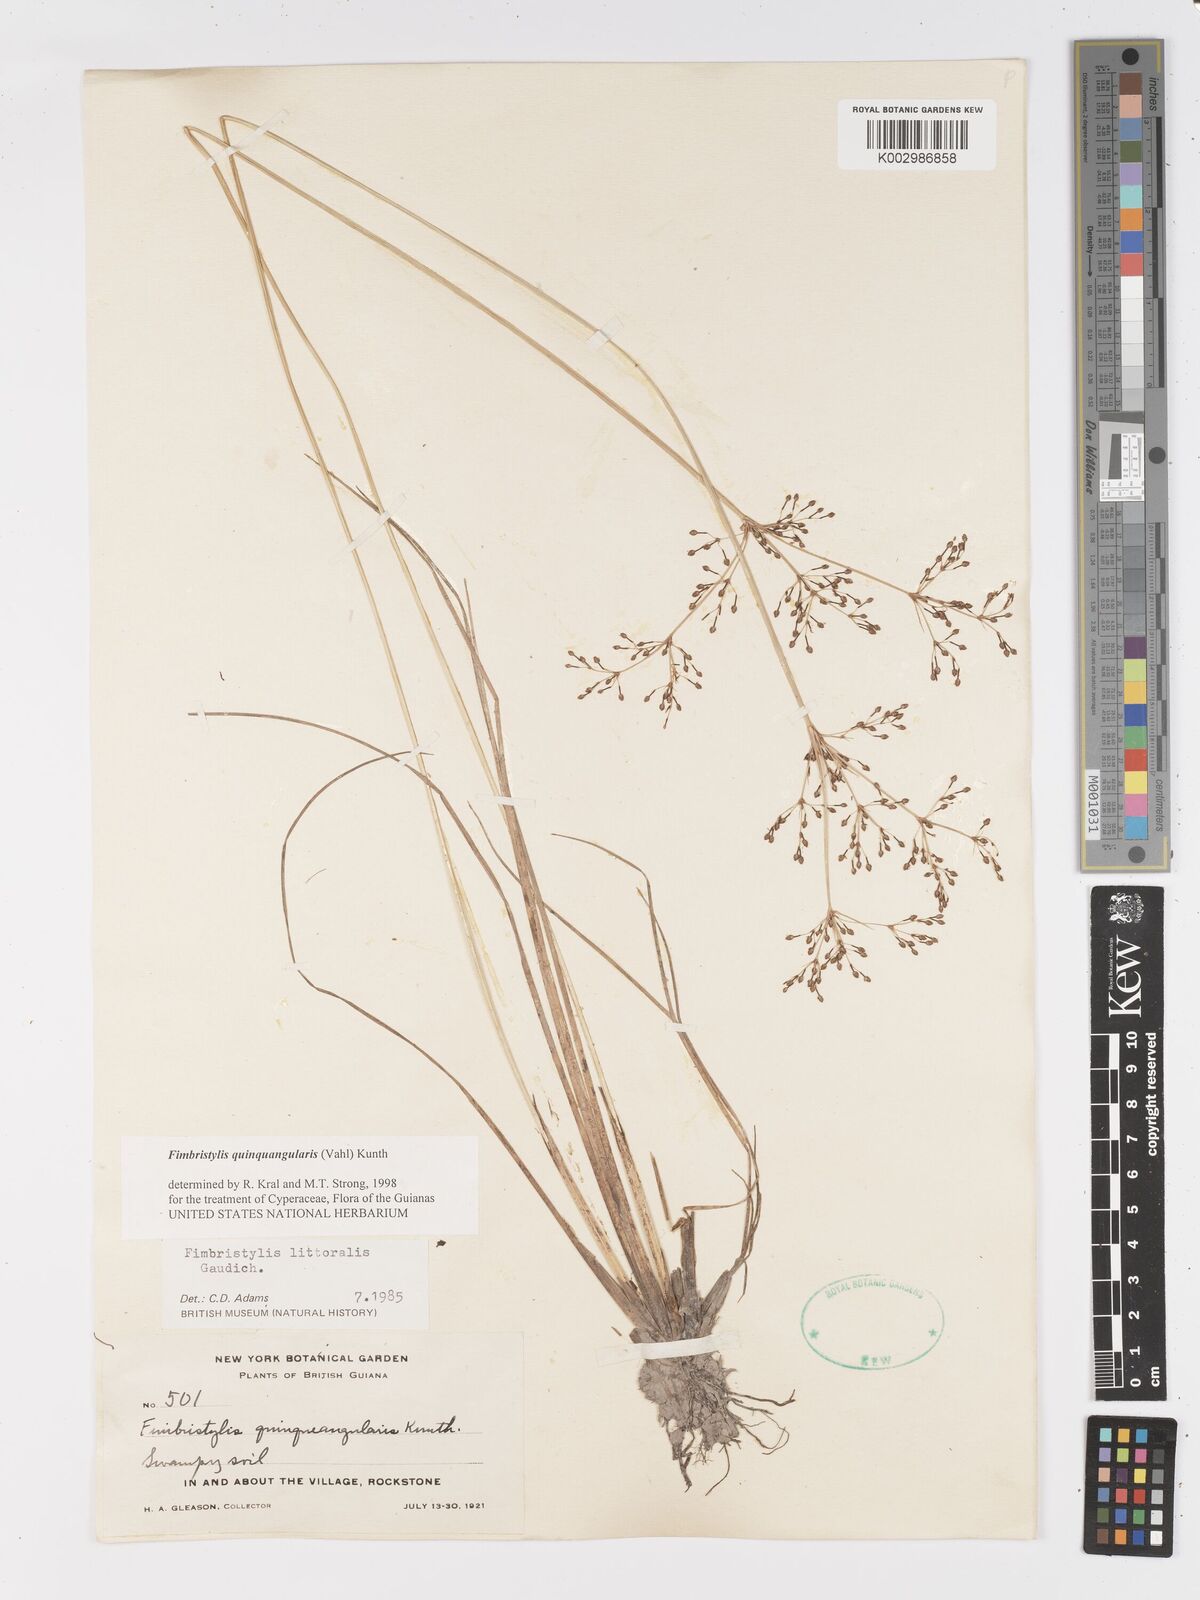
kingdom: Plantae
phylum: Tracheophyta
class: Liliopsida
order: Poales
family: Cyperaceae
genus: Fimbristylis
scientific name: Fimbristylis quinquangularis
